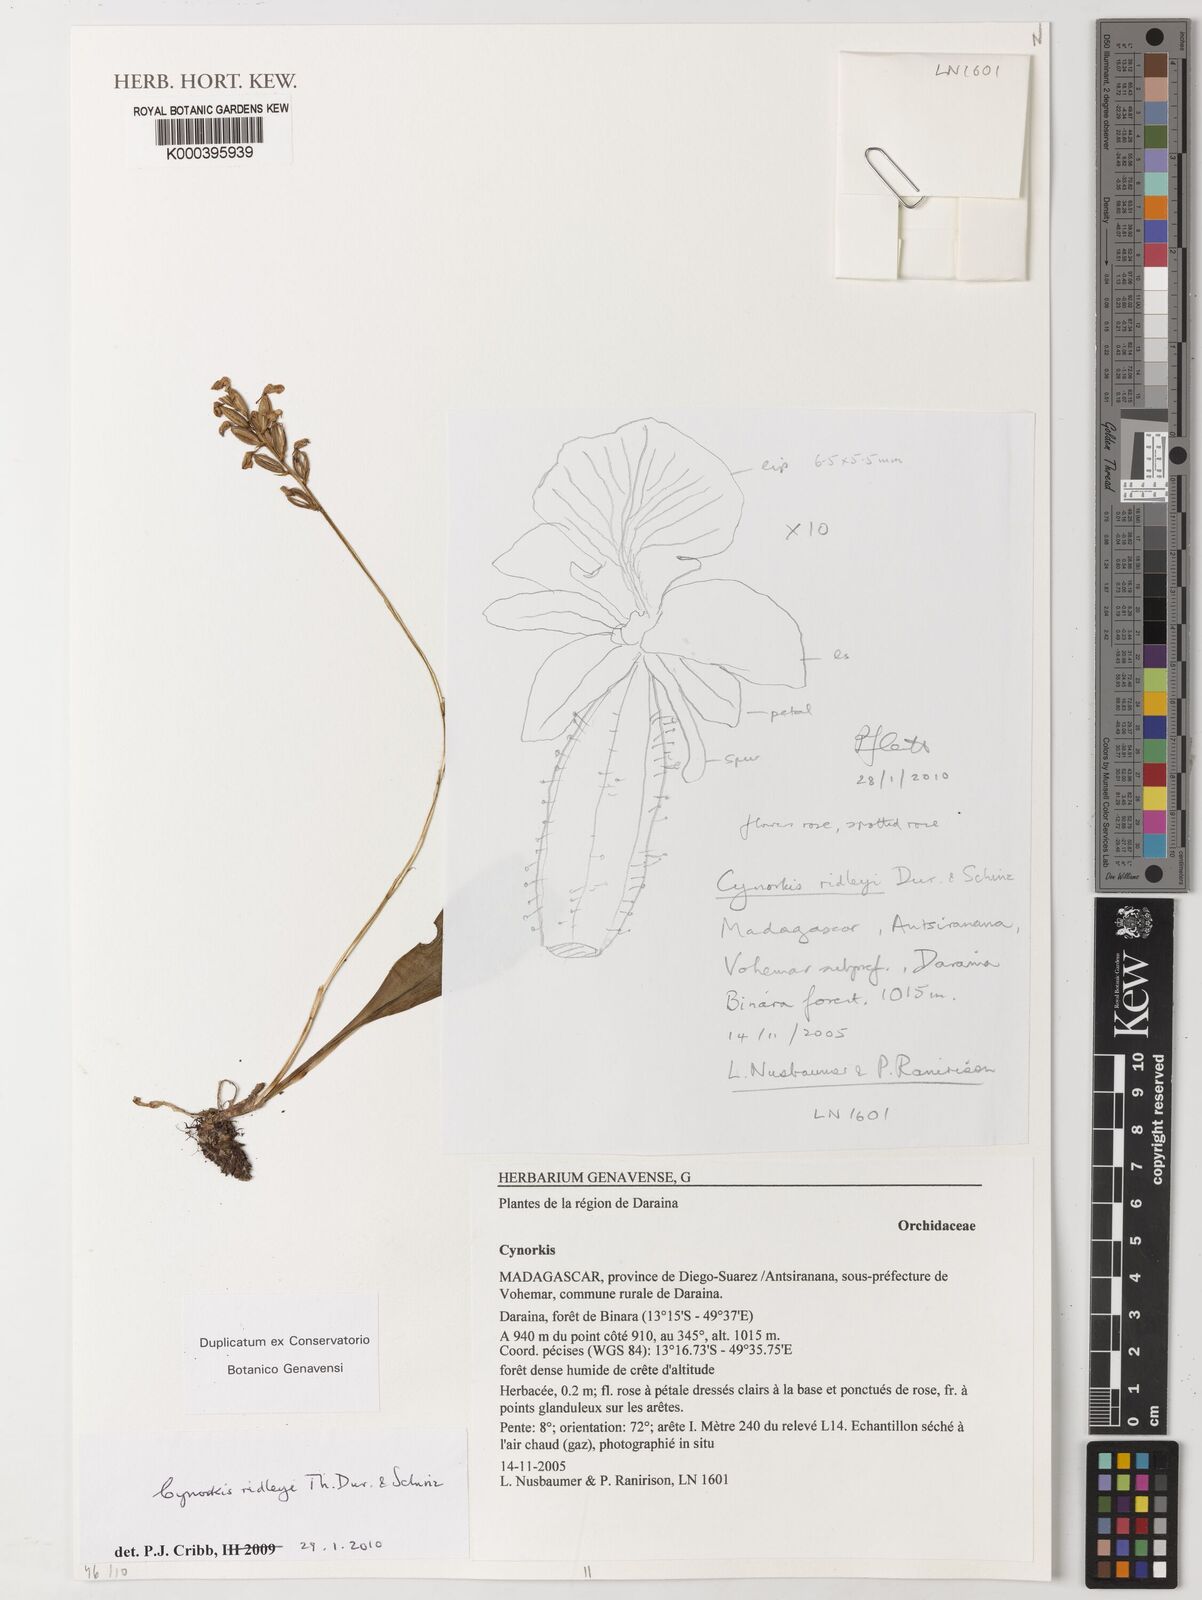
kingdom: Plantae
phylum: Tracheophyta
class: Liliopsida
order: Asparagales
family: Orchidaceae
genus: Cynorkis
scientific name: Cynorkis ridleyi
